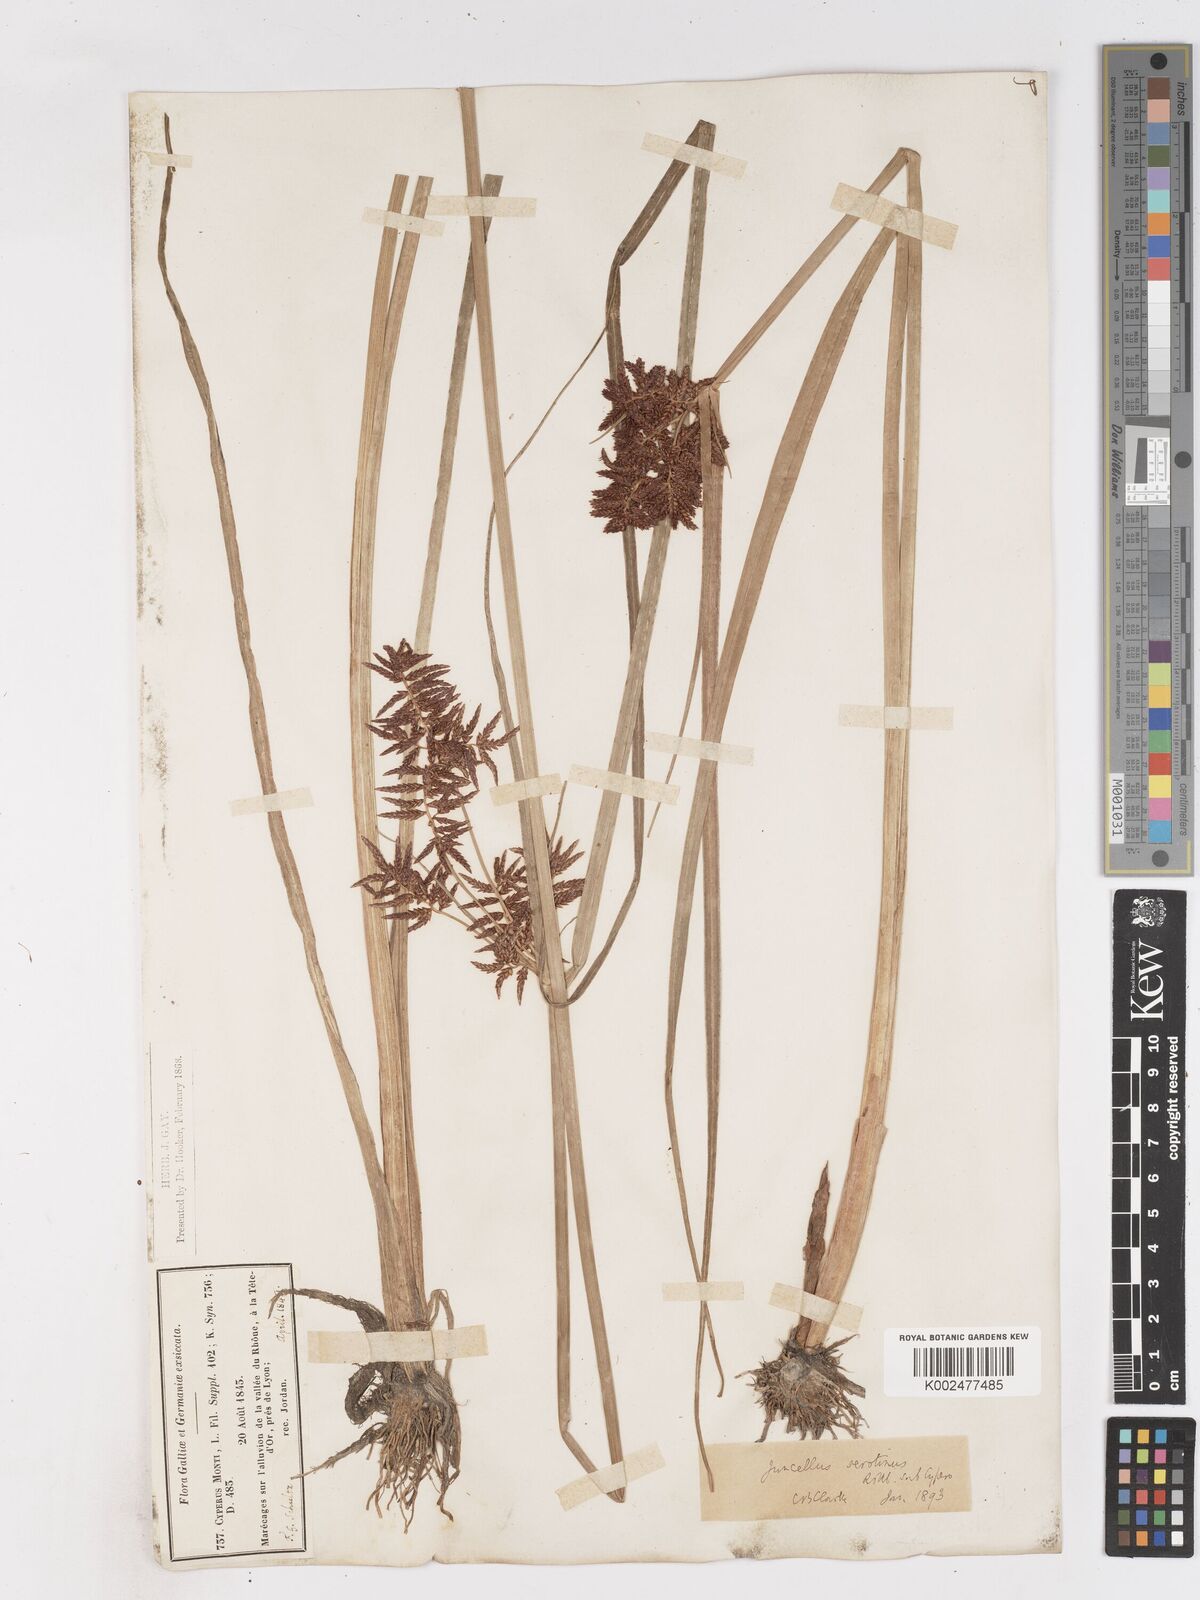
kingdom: Plantae
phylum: Tracheophyta
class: Liliopsida
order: Poales
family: Cyperaceae
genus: Cyperus
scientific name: Cyperus serotinus
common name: Tidalmarsh flatsedge
